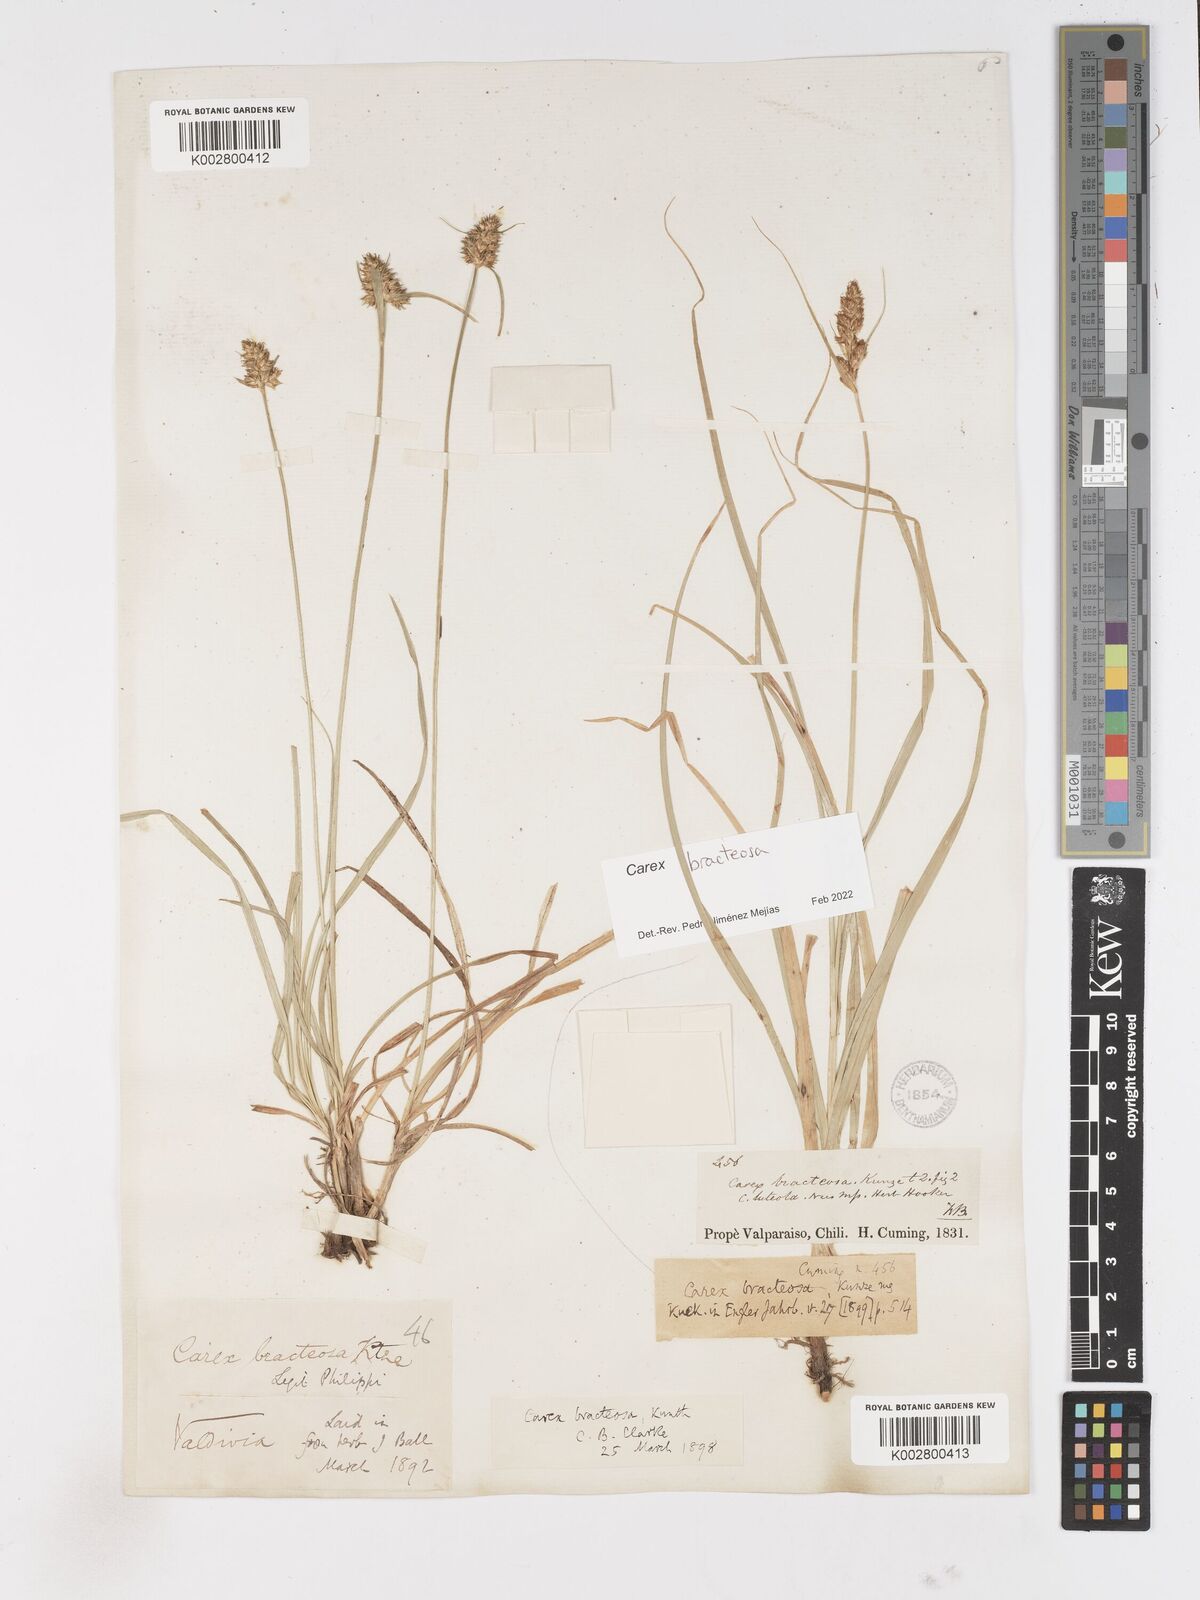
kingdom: Plantae
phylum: Tracheophyta
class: Liliopsida
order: Poales
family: Cyperaceae
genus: Carex
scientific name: Carex bracteosa
